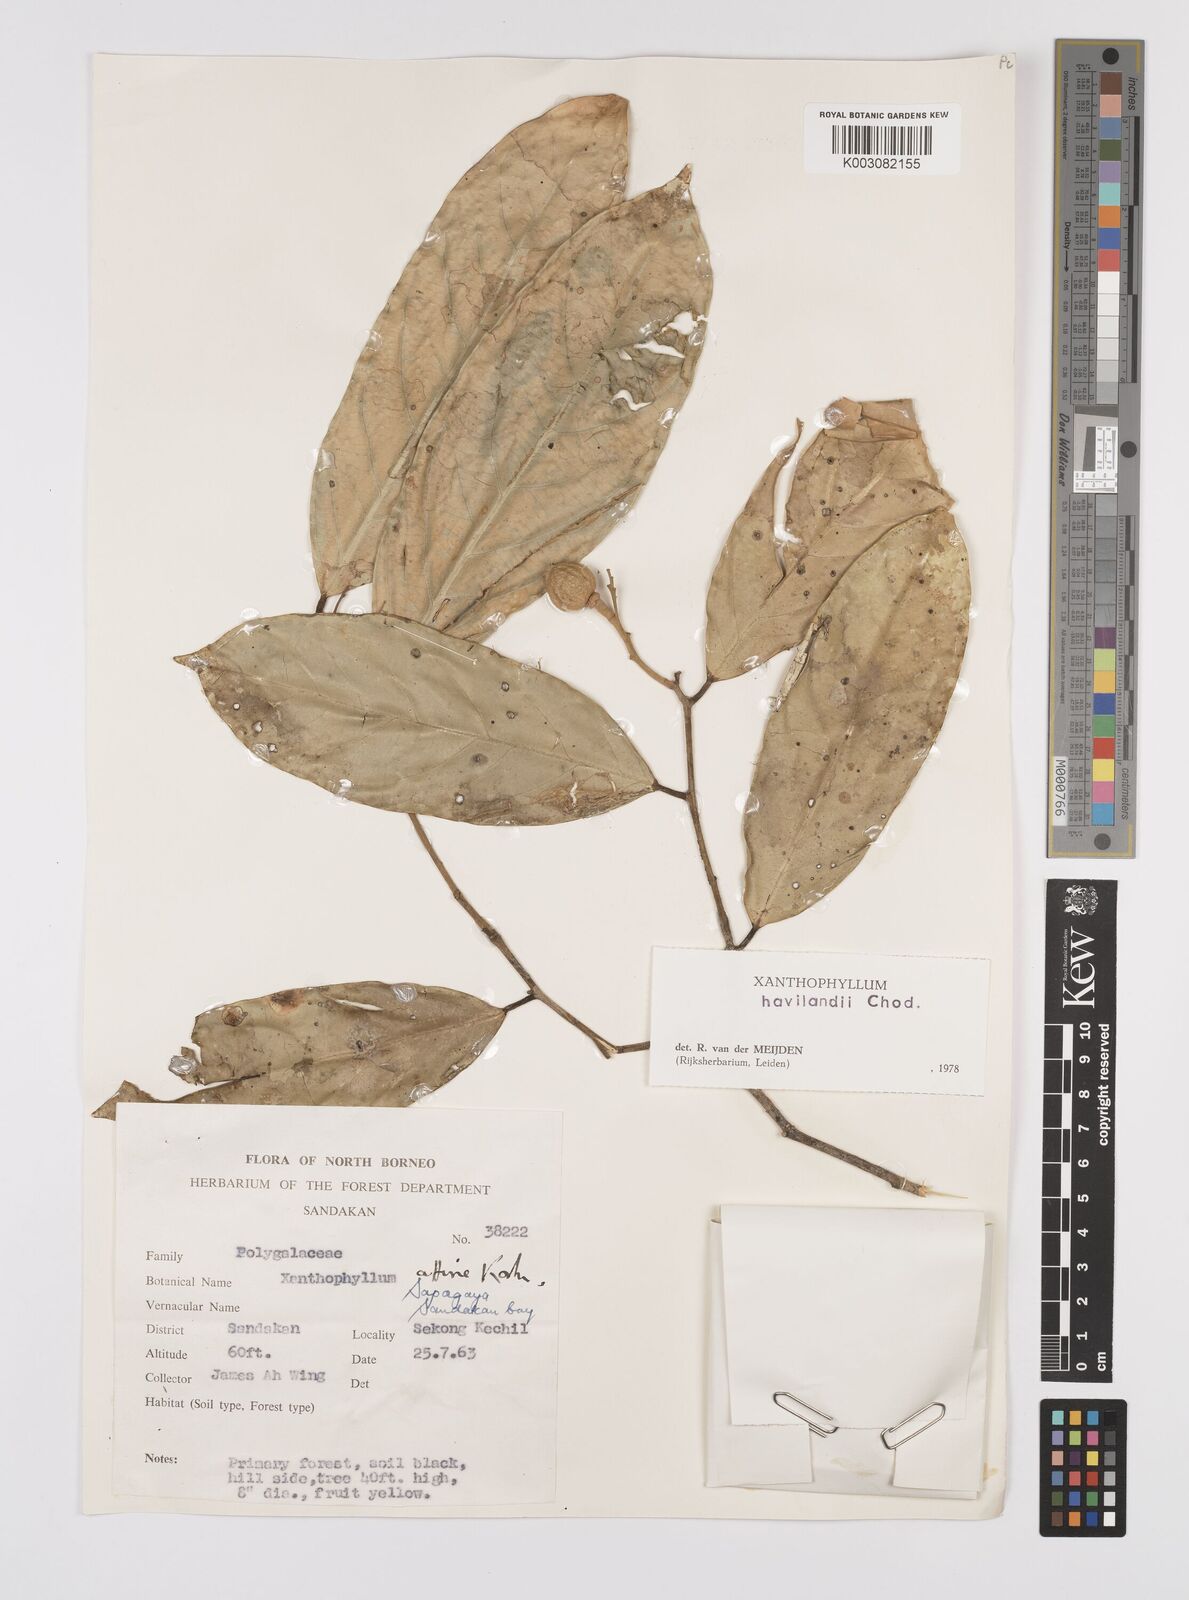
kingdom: Plantae
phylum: Tracheophyta
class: Magnoliopsida
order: Fabales
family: Polygalaceae
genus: Xanthophyllum
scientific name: Xanthophyllum havilandii
